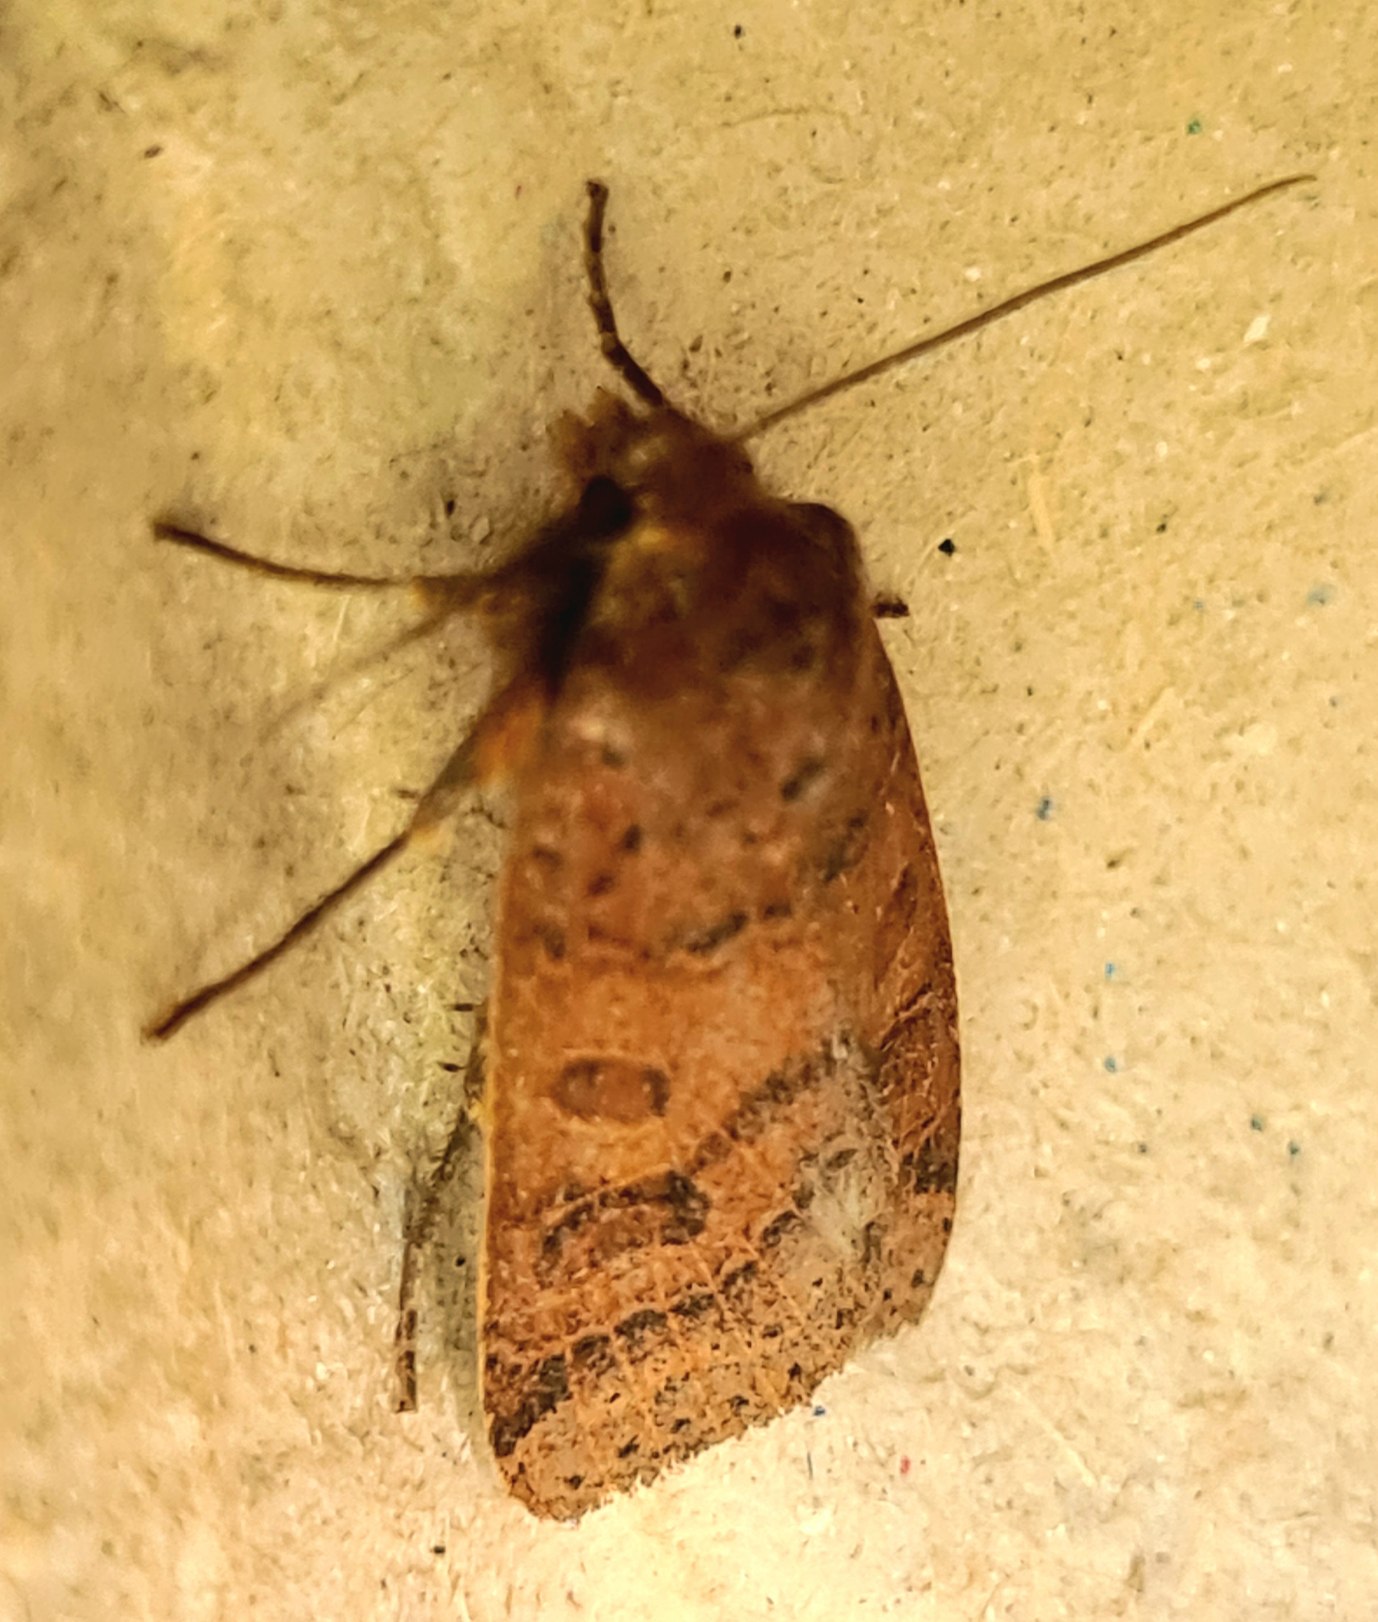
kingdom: Animalia
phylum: Arthropoda
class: Insecta
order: Lepidoptera
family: Noctuidae
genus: Agrochola
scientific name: Agrochola nitida
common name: Skinnende jordfarveugle
